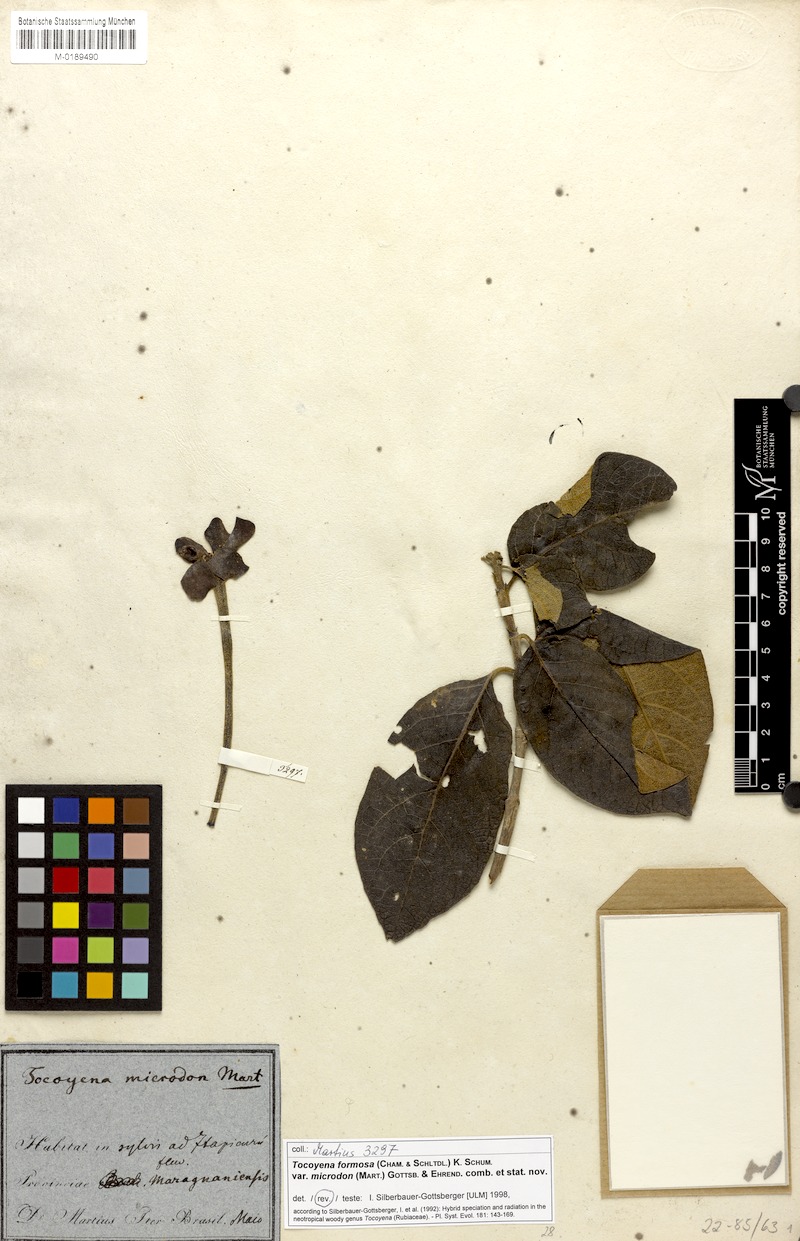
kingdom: Plantae
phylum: Tracheophyta
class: Magnoliopsida
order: Gentianales
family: Rubiaceae
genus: Tocoyena
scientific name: Tocoyena formosa
